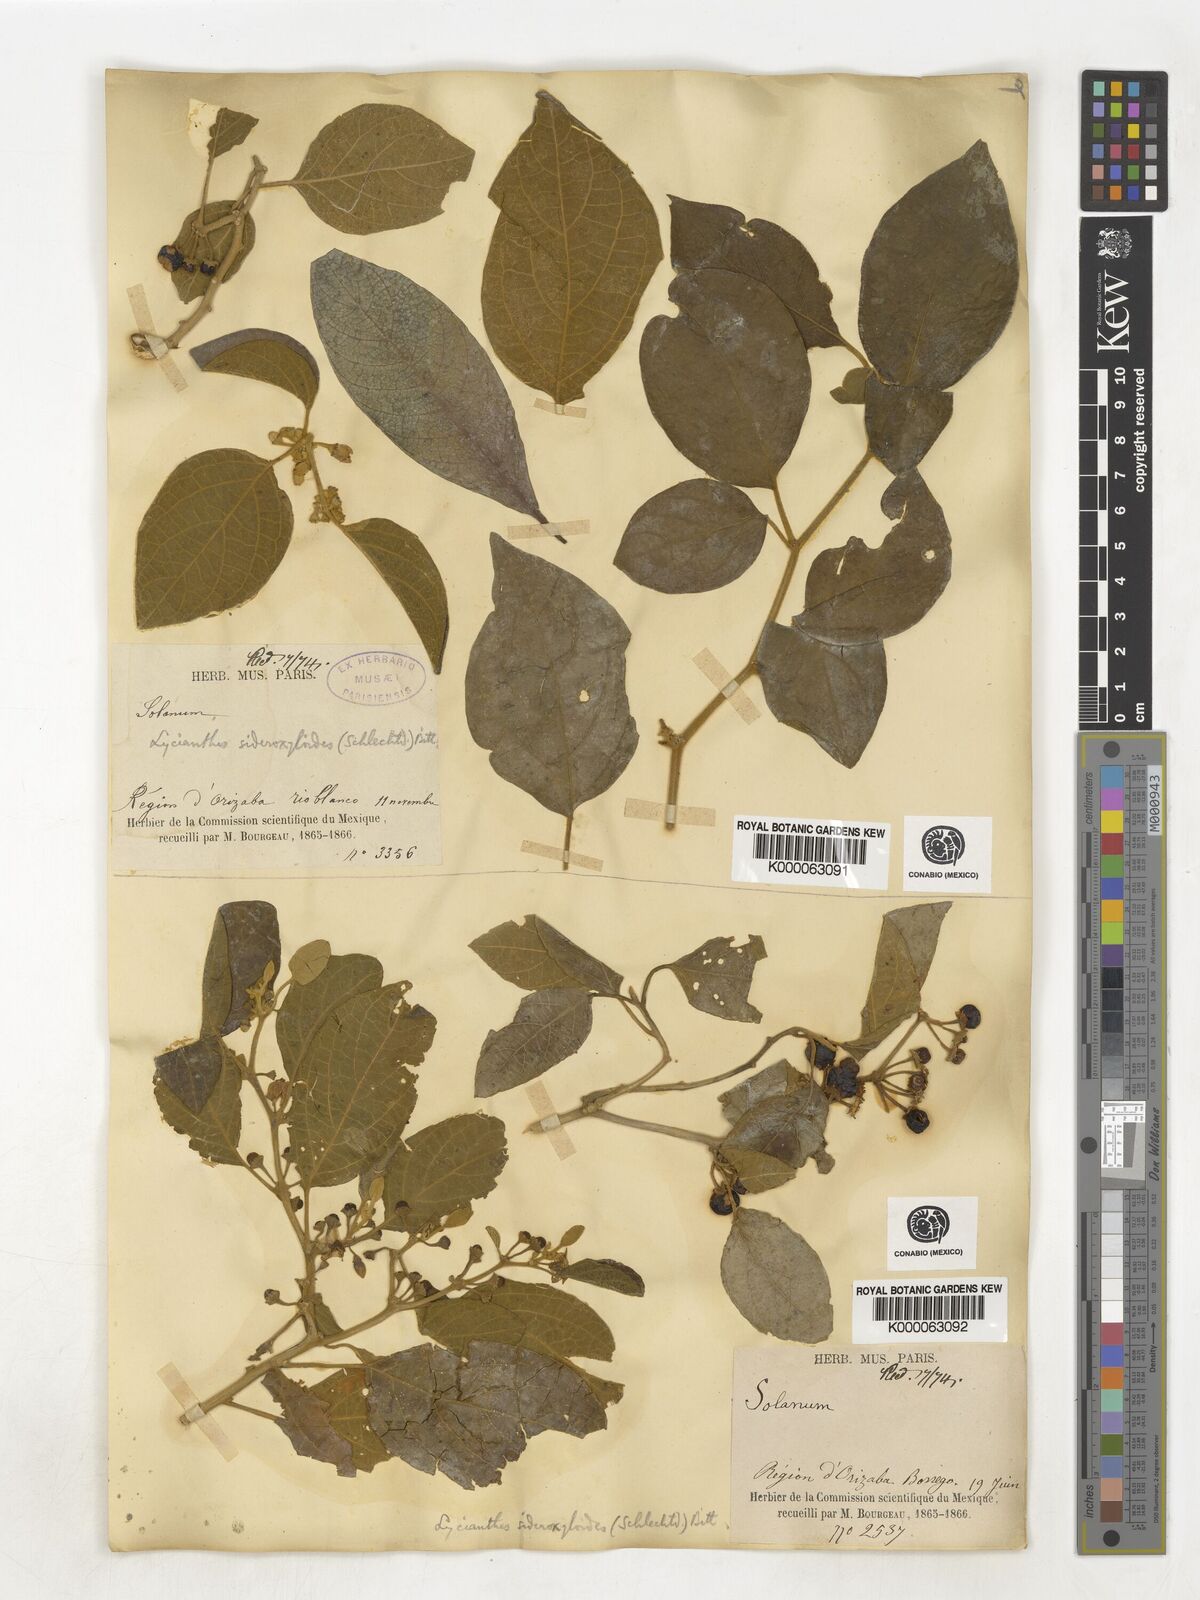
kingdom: Plantae
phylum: Tracheophyta
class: Magnoliopsida
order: Solanales
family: Solanaceae
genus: Lycianthes
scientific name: Lycianthes sideroxyloides
